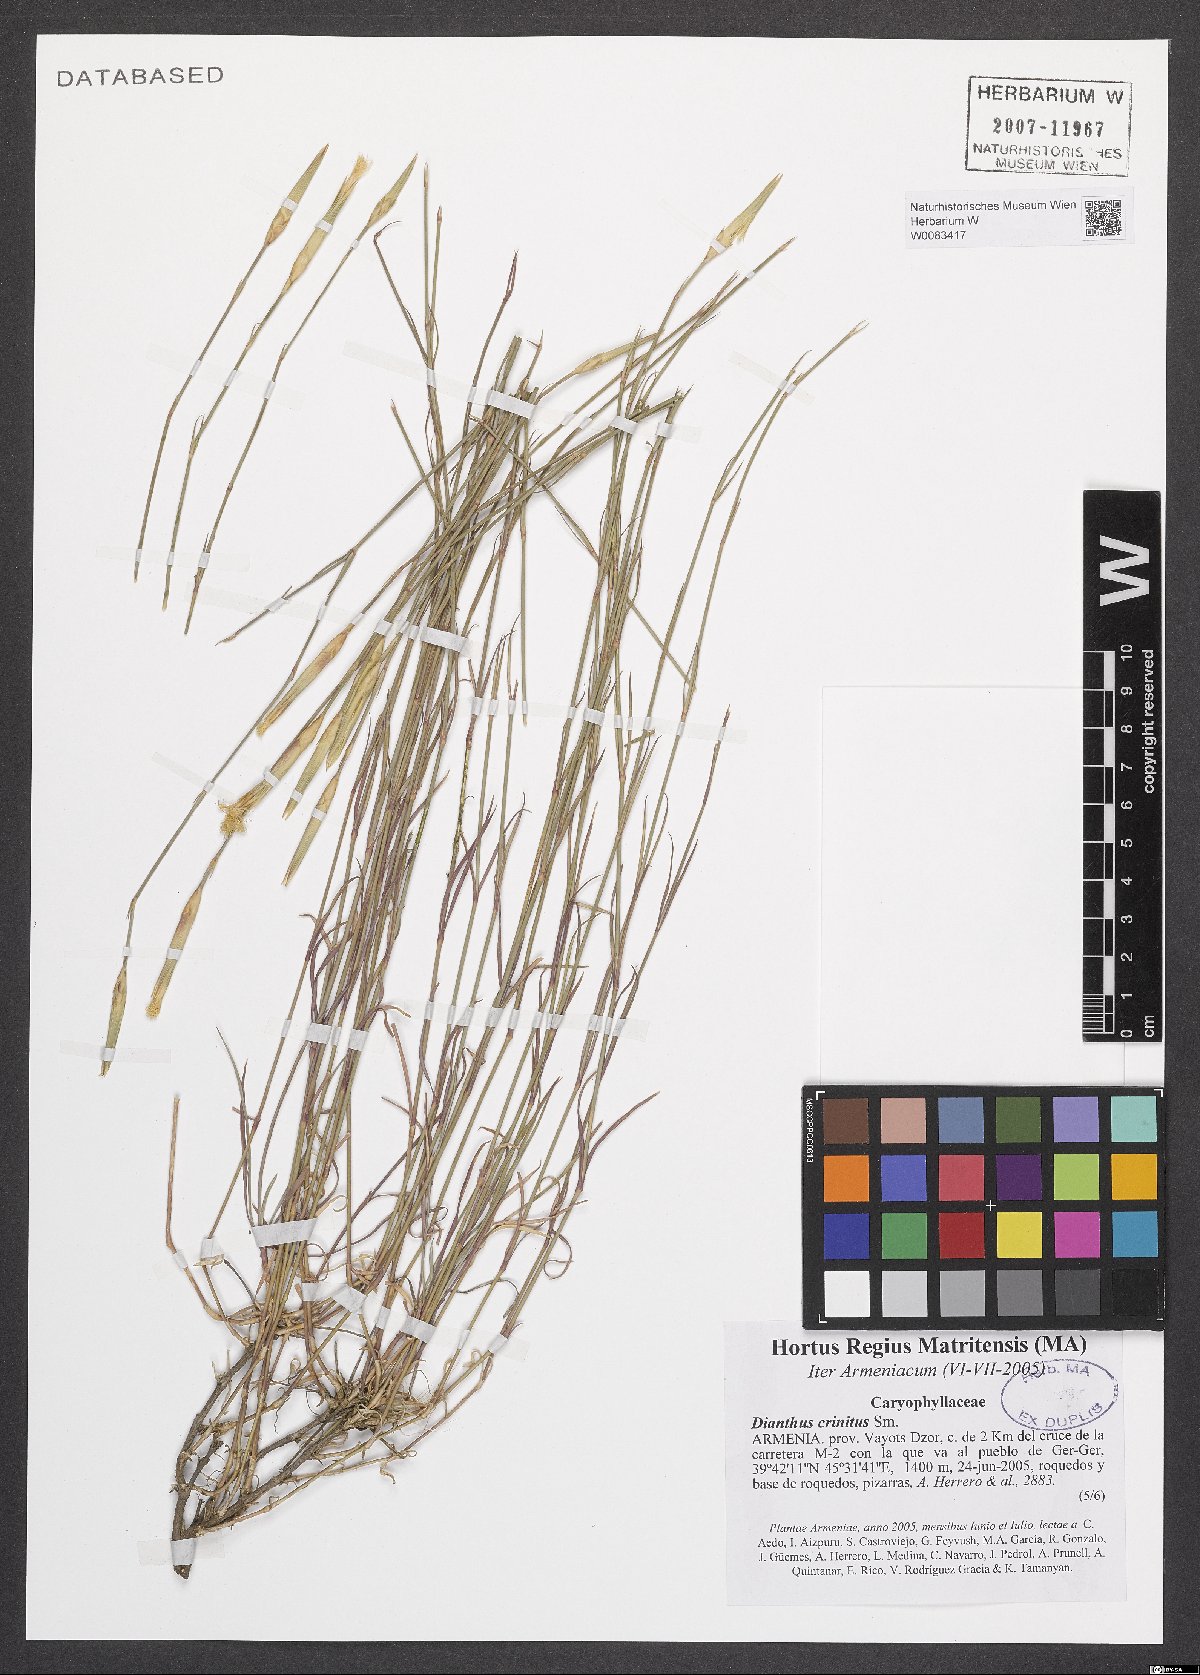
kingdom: Plantae
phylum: Tracheophyta
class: Magnoliopsida
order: Caryophyllales
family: Caryophyllaceae
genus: Dianthus
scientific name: Dianthus crinitus
